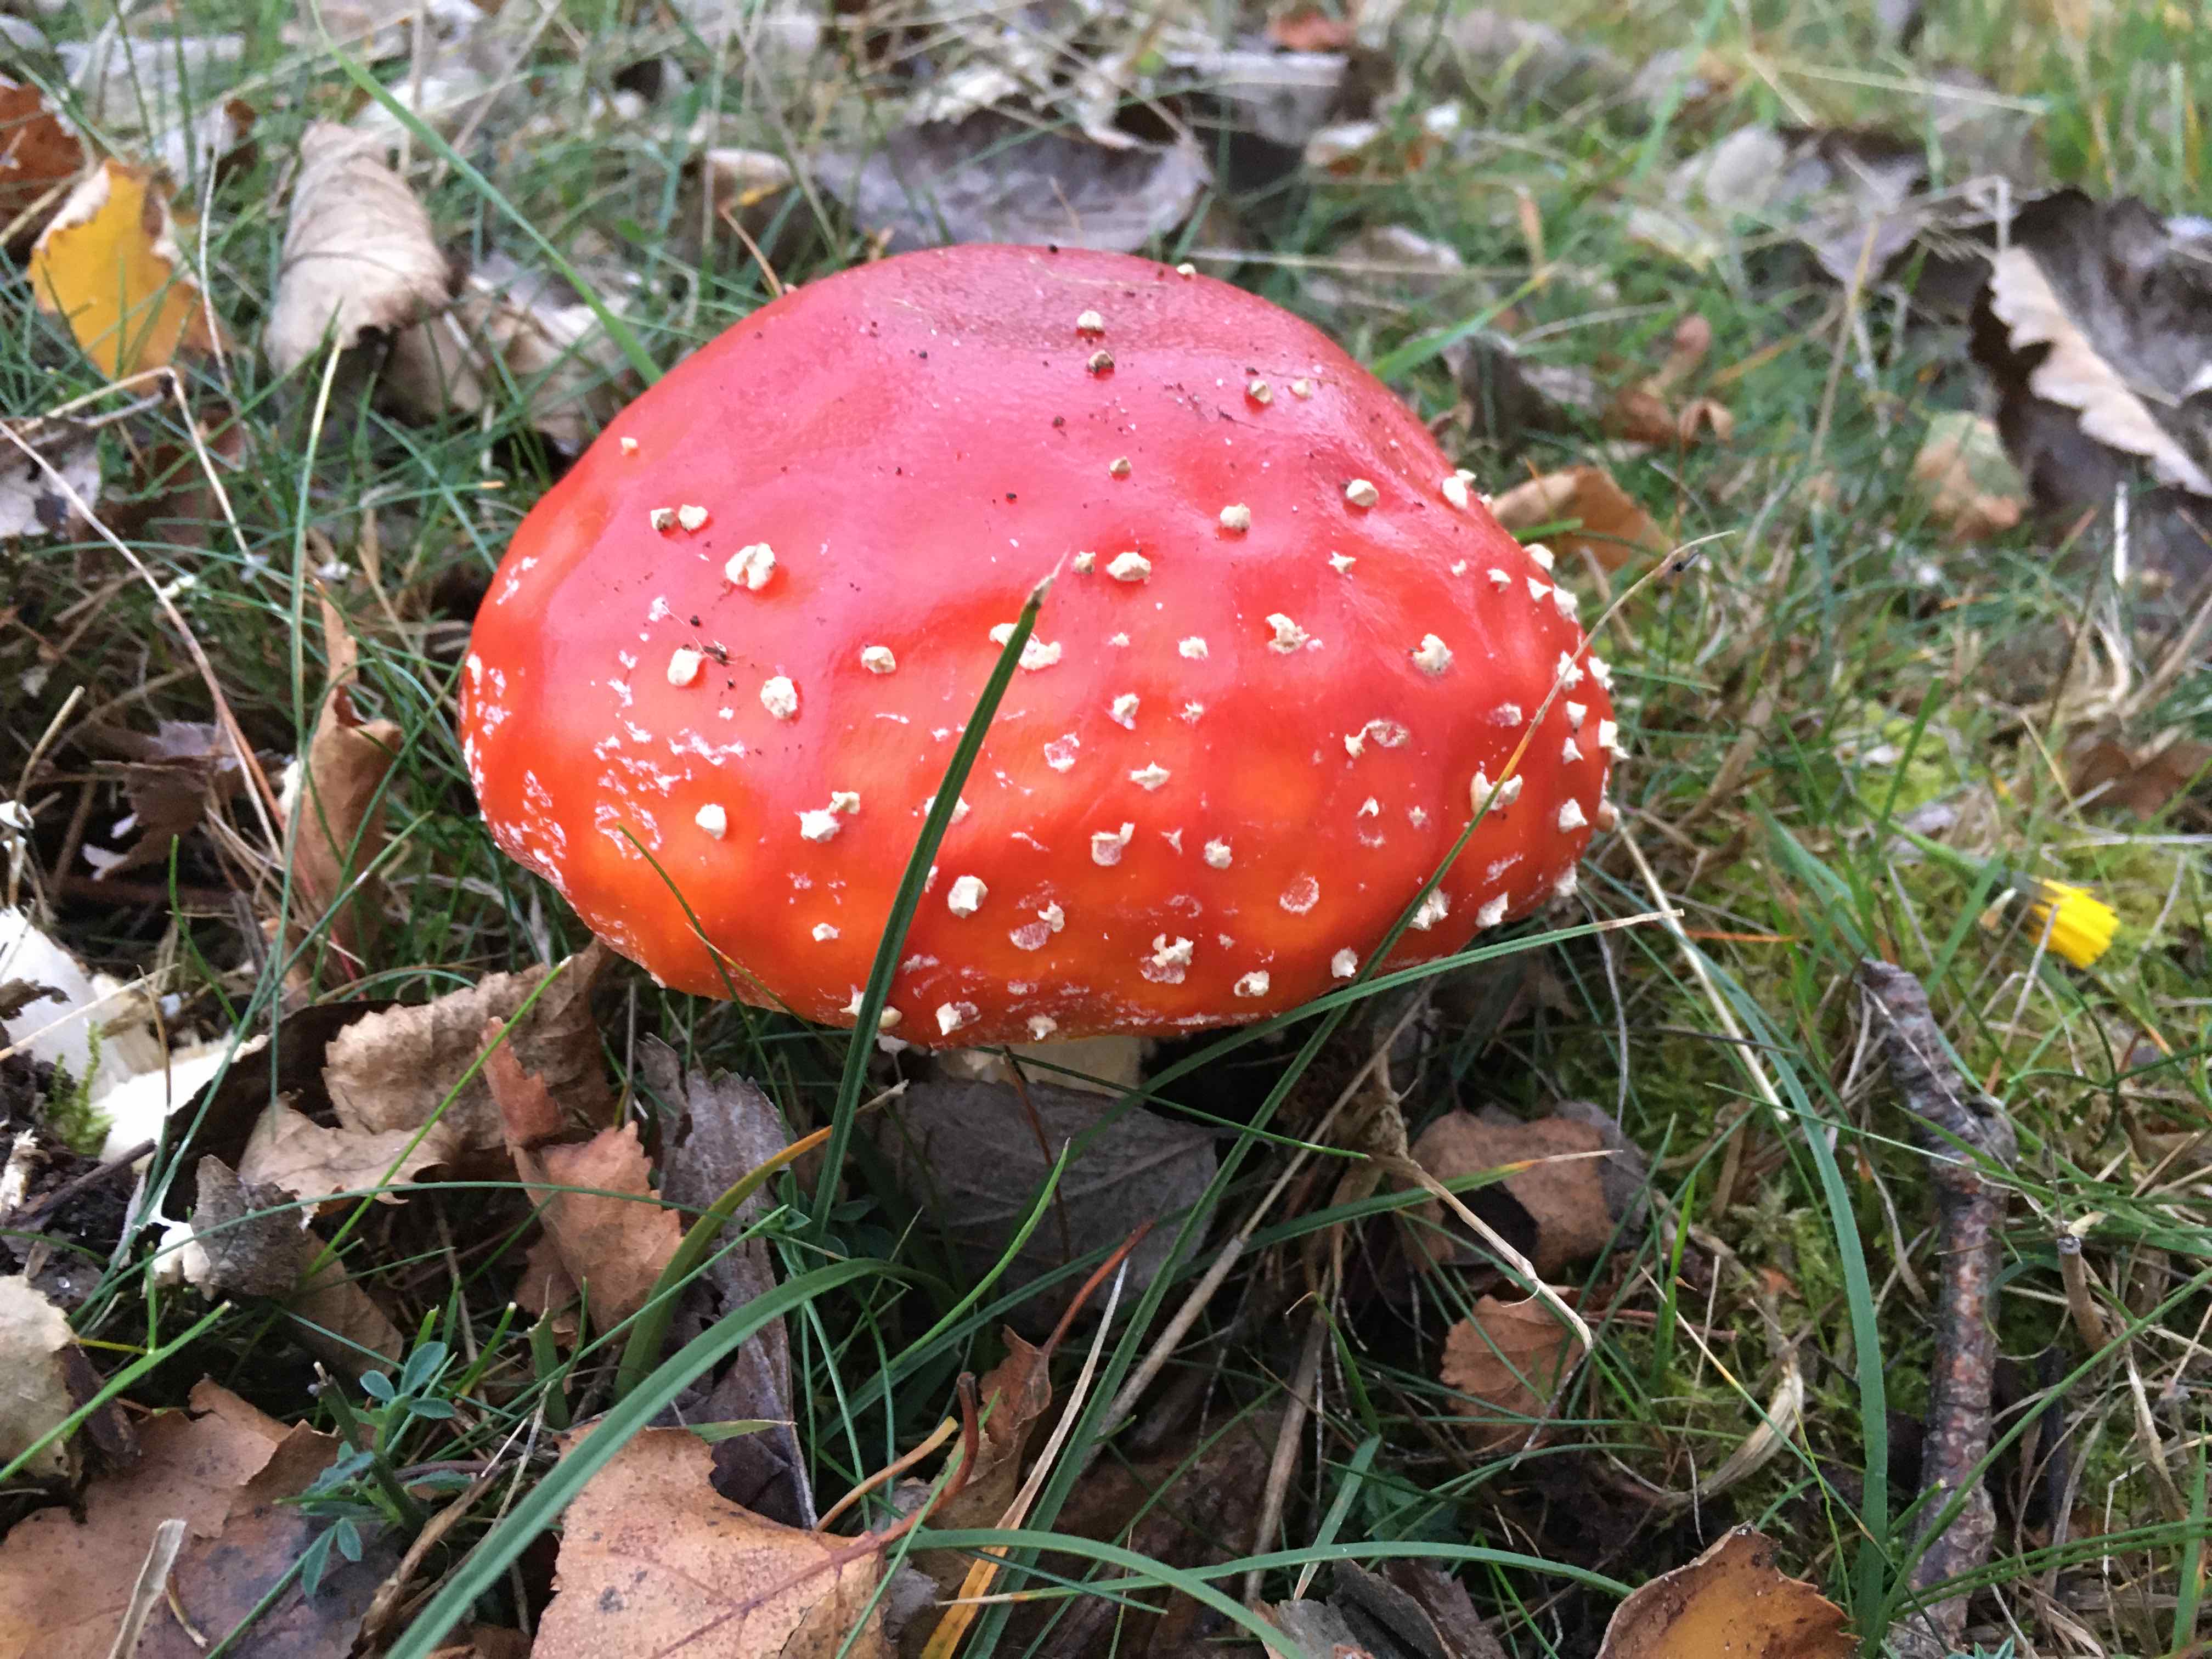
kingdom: Fungi
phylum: Basidiomycota
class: Agaricomycetes
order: Agaricales
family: Amanitaceae
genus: Amanita
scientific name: Amanita muscaria
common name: rød fluesvamp
